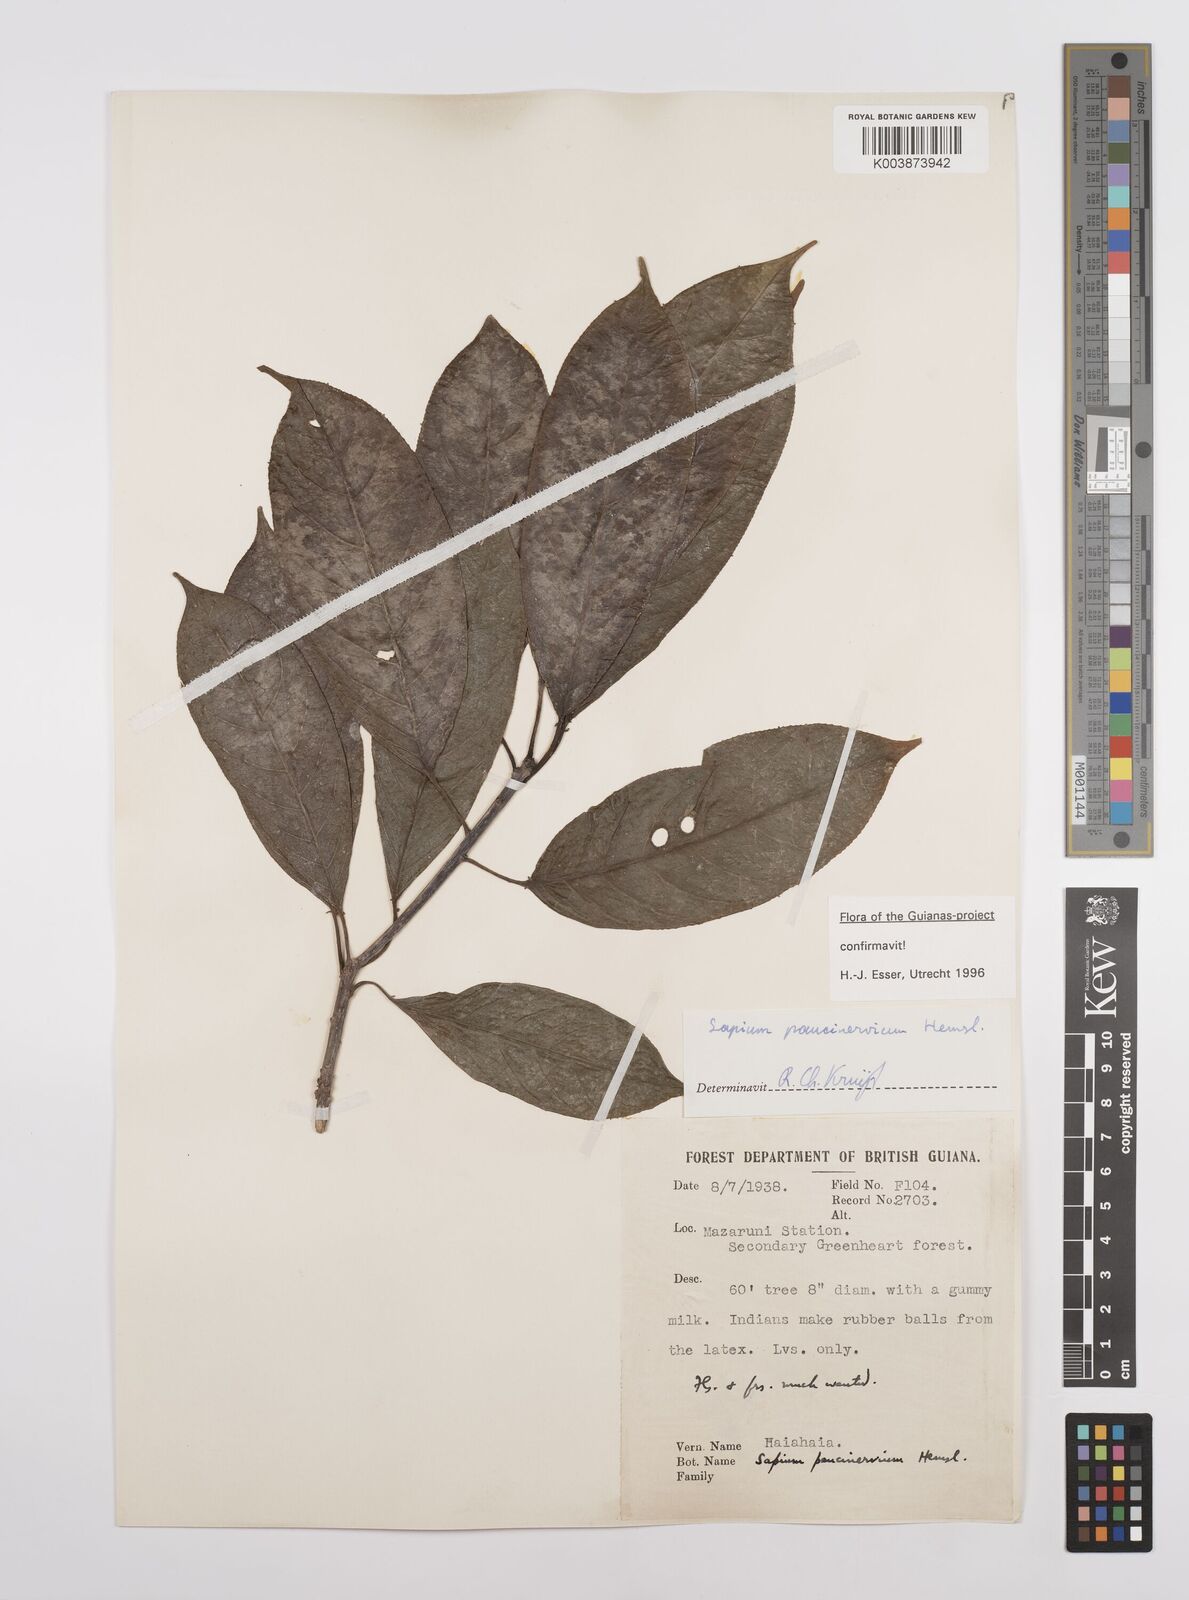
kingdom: Plantae
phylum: Tracheophyta
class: Magnoliopsida
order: Malpighiales
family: Euphorbiaceae
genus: Sapium
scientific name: Sapium paucinervium
